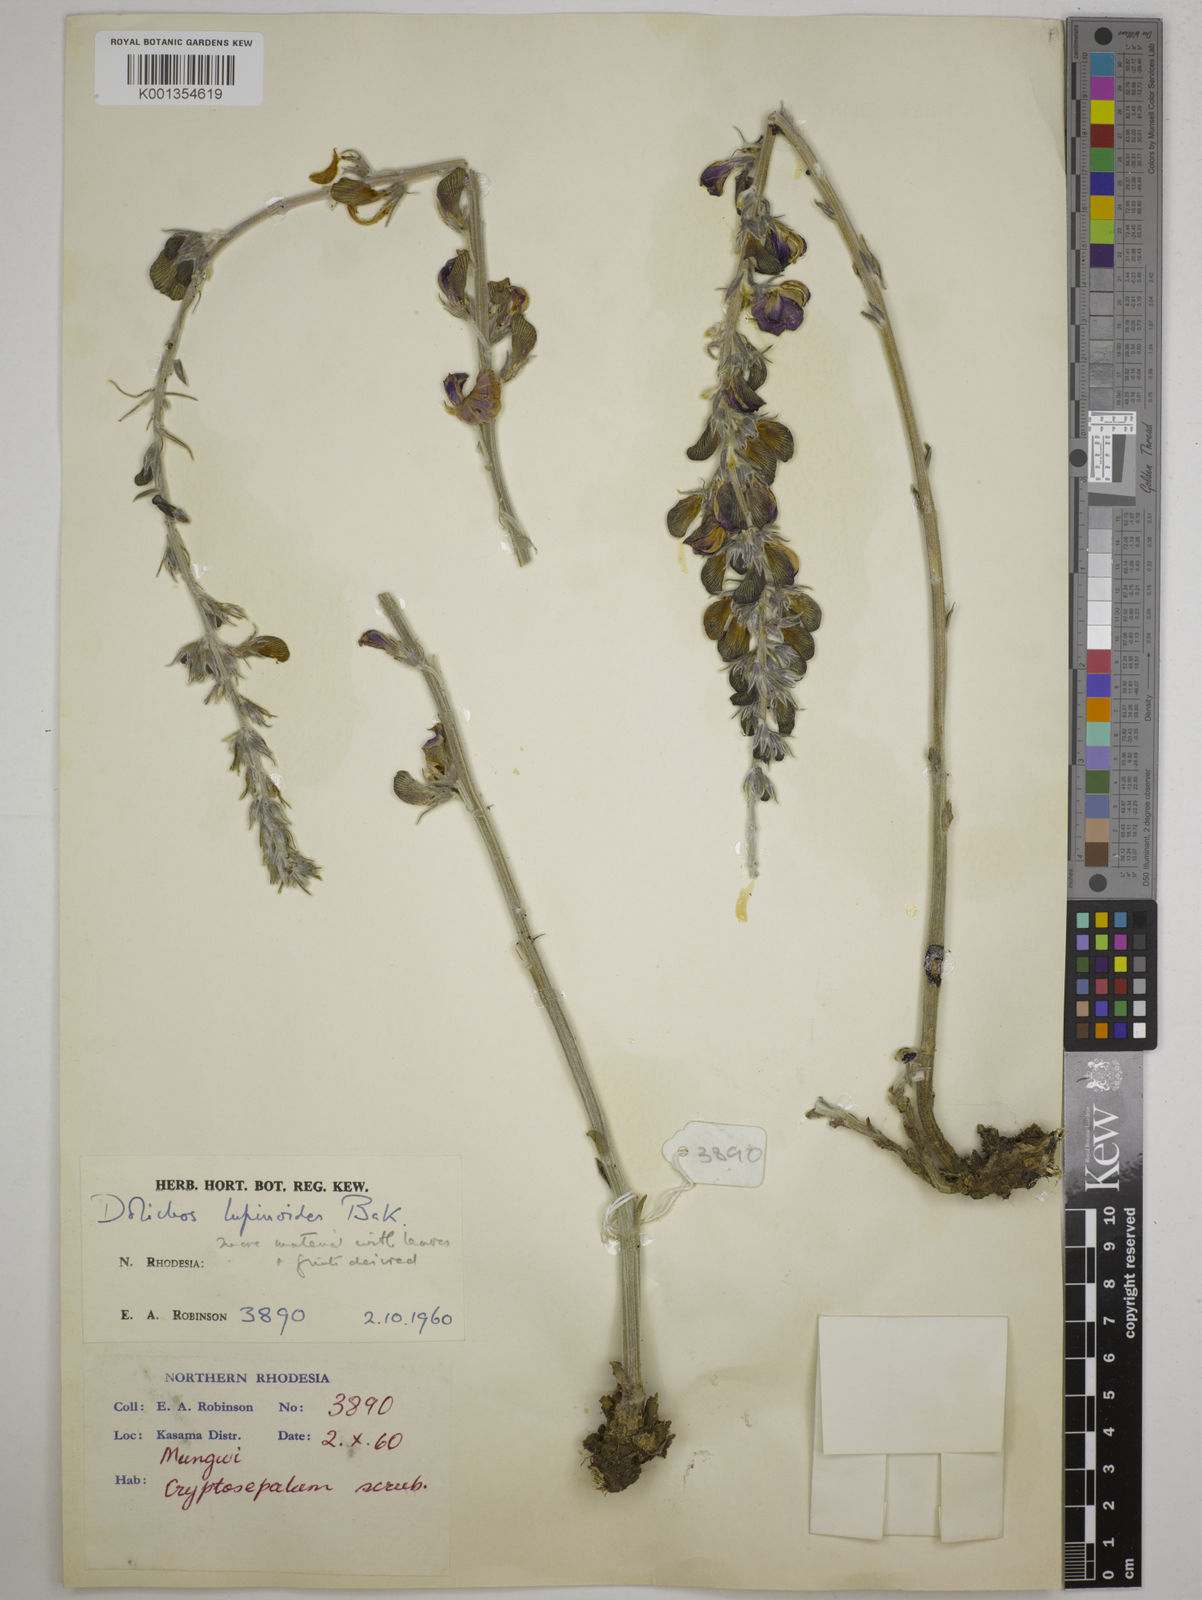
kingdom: Plantae
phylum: Tracheophyta
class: Magnoliopsida
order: Fabales
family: Fabaceae
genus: Dolichos
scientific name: Dolichos kilimandscharicus
